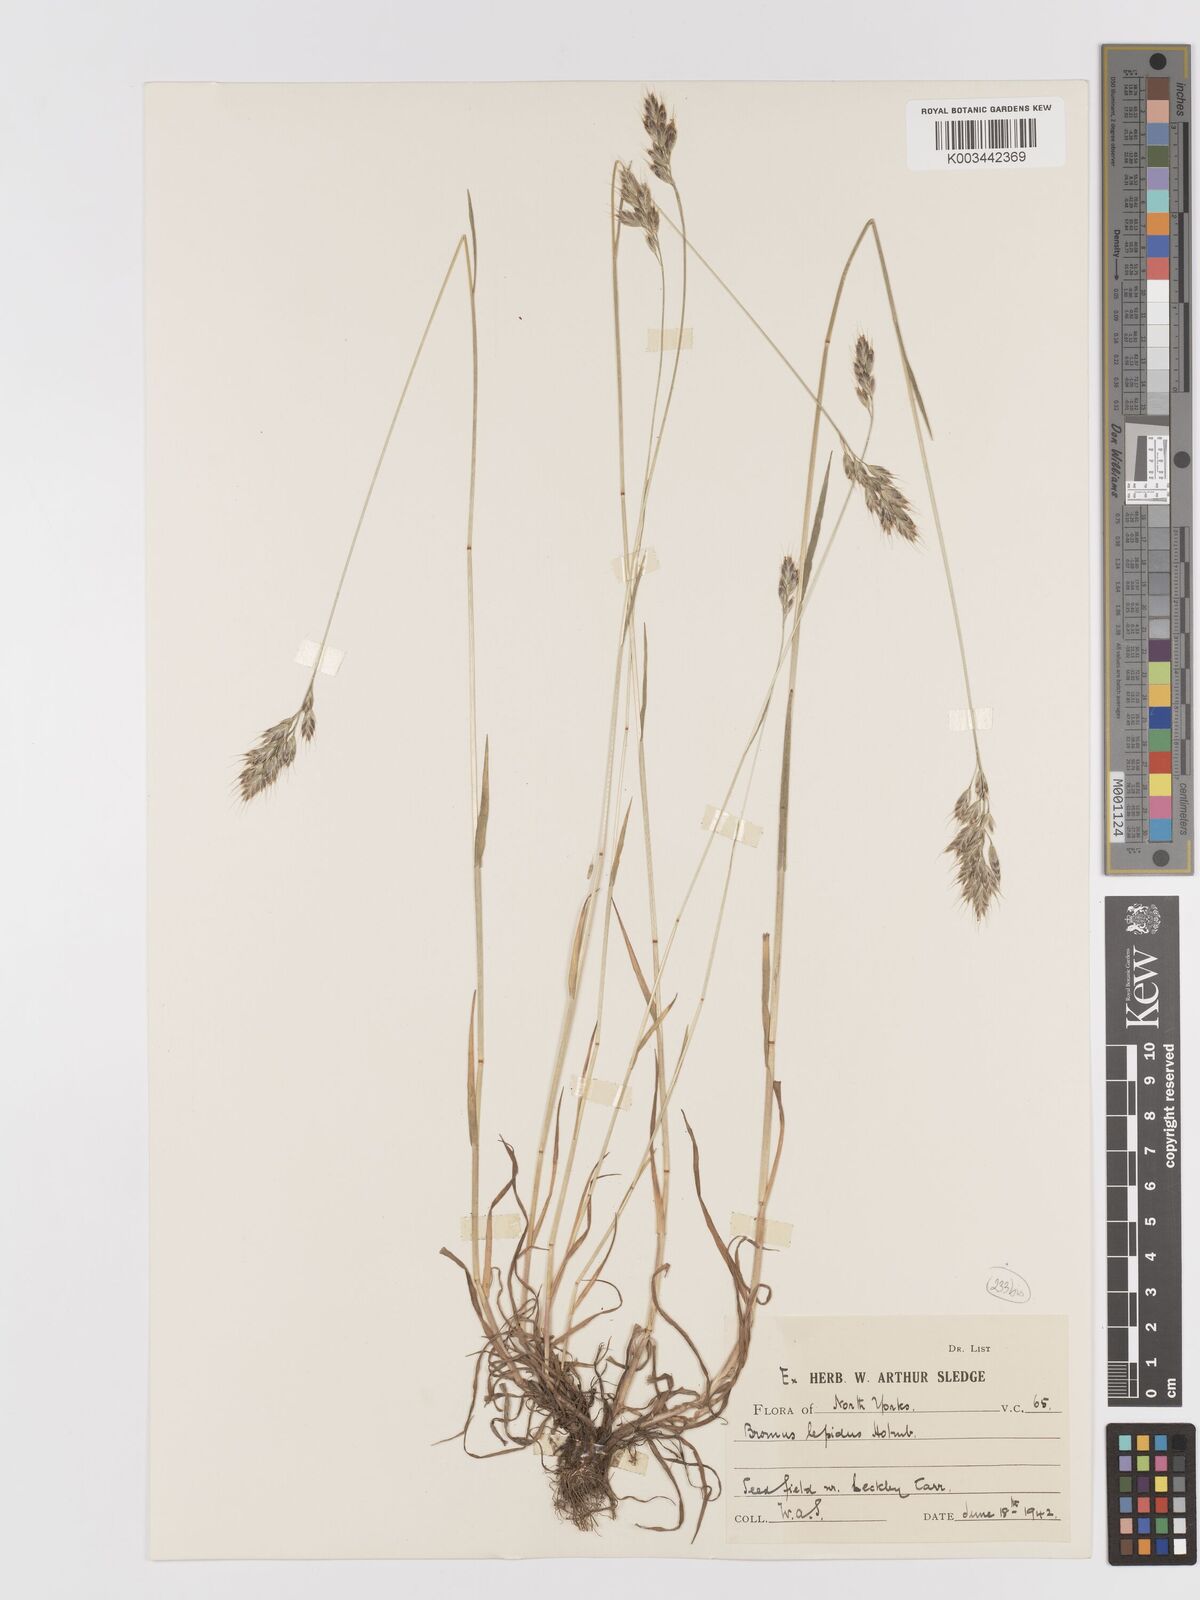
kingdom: Plantae
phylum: Tracheophyta
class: Liliopsida
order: Poales
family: Poaceae
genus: Bromus
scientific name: Bromus lepidus
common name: Slender soft-brome
